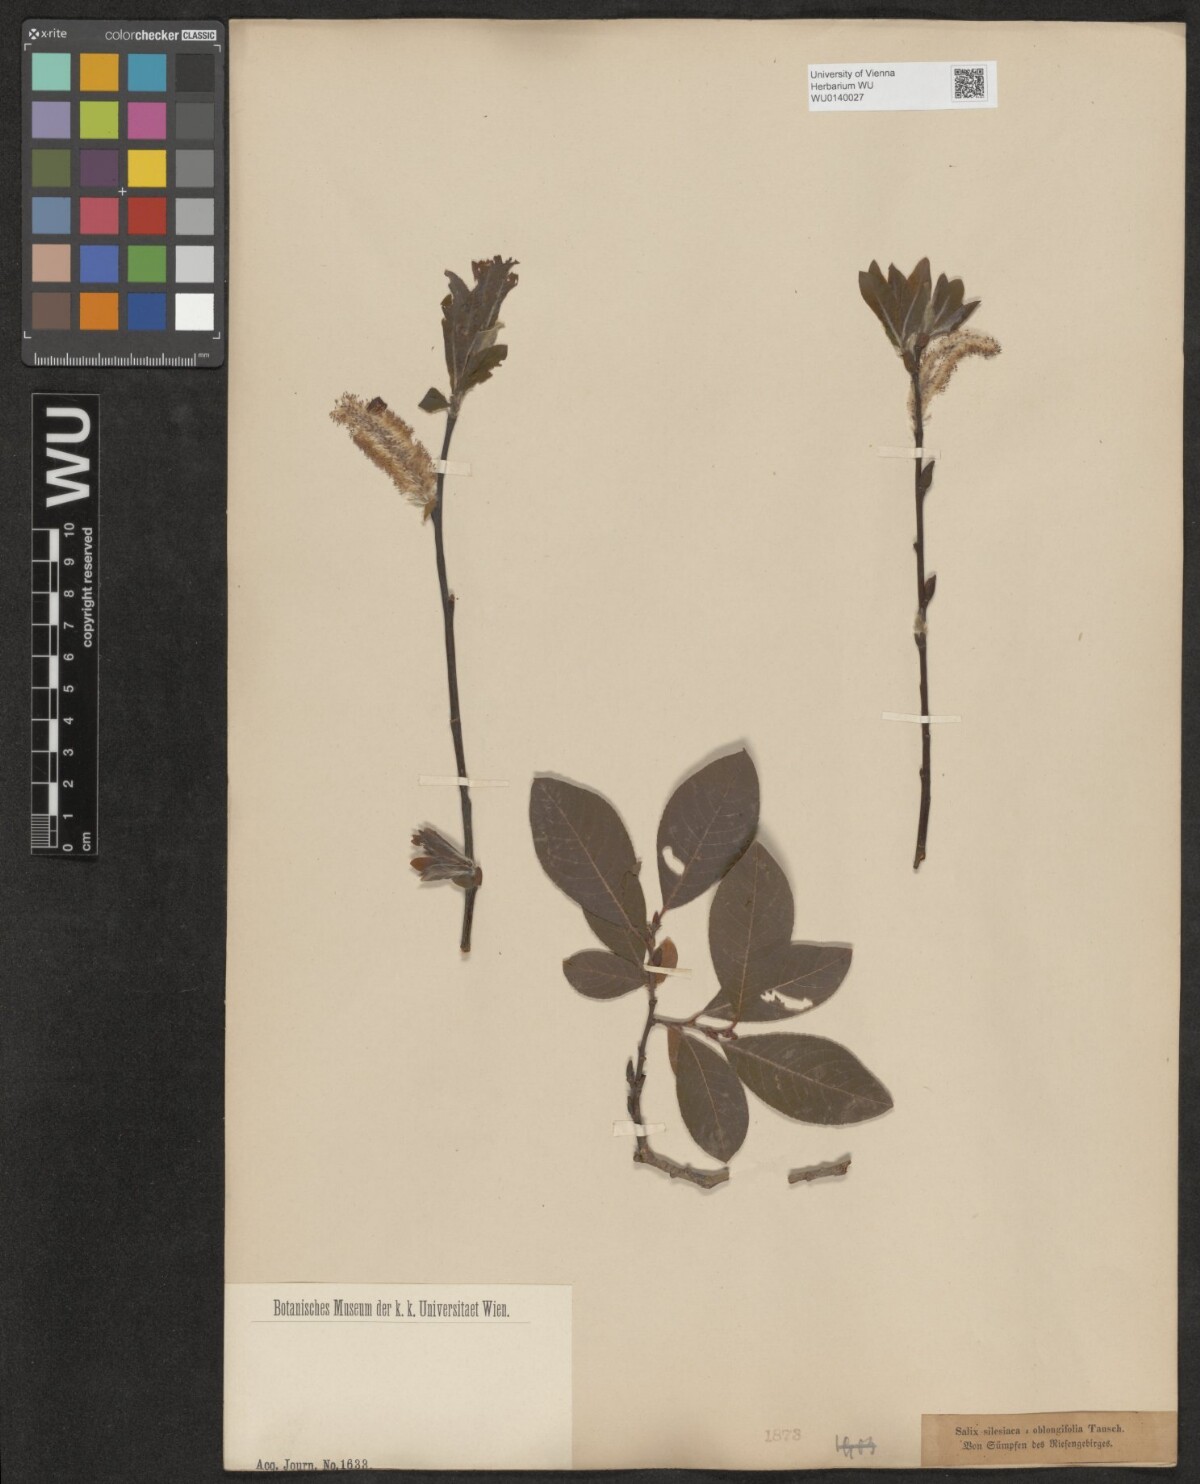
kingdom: Plantae
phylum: Tracheophyta
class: Magnoliopsida
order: Malpighiales
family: Salicaceae
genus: Salix
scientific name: Salix silesiaca
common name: Silesian willow
